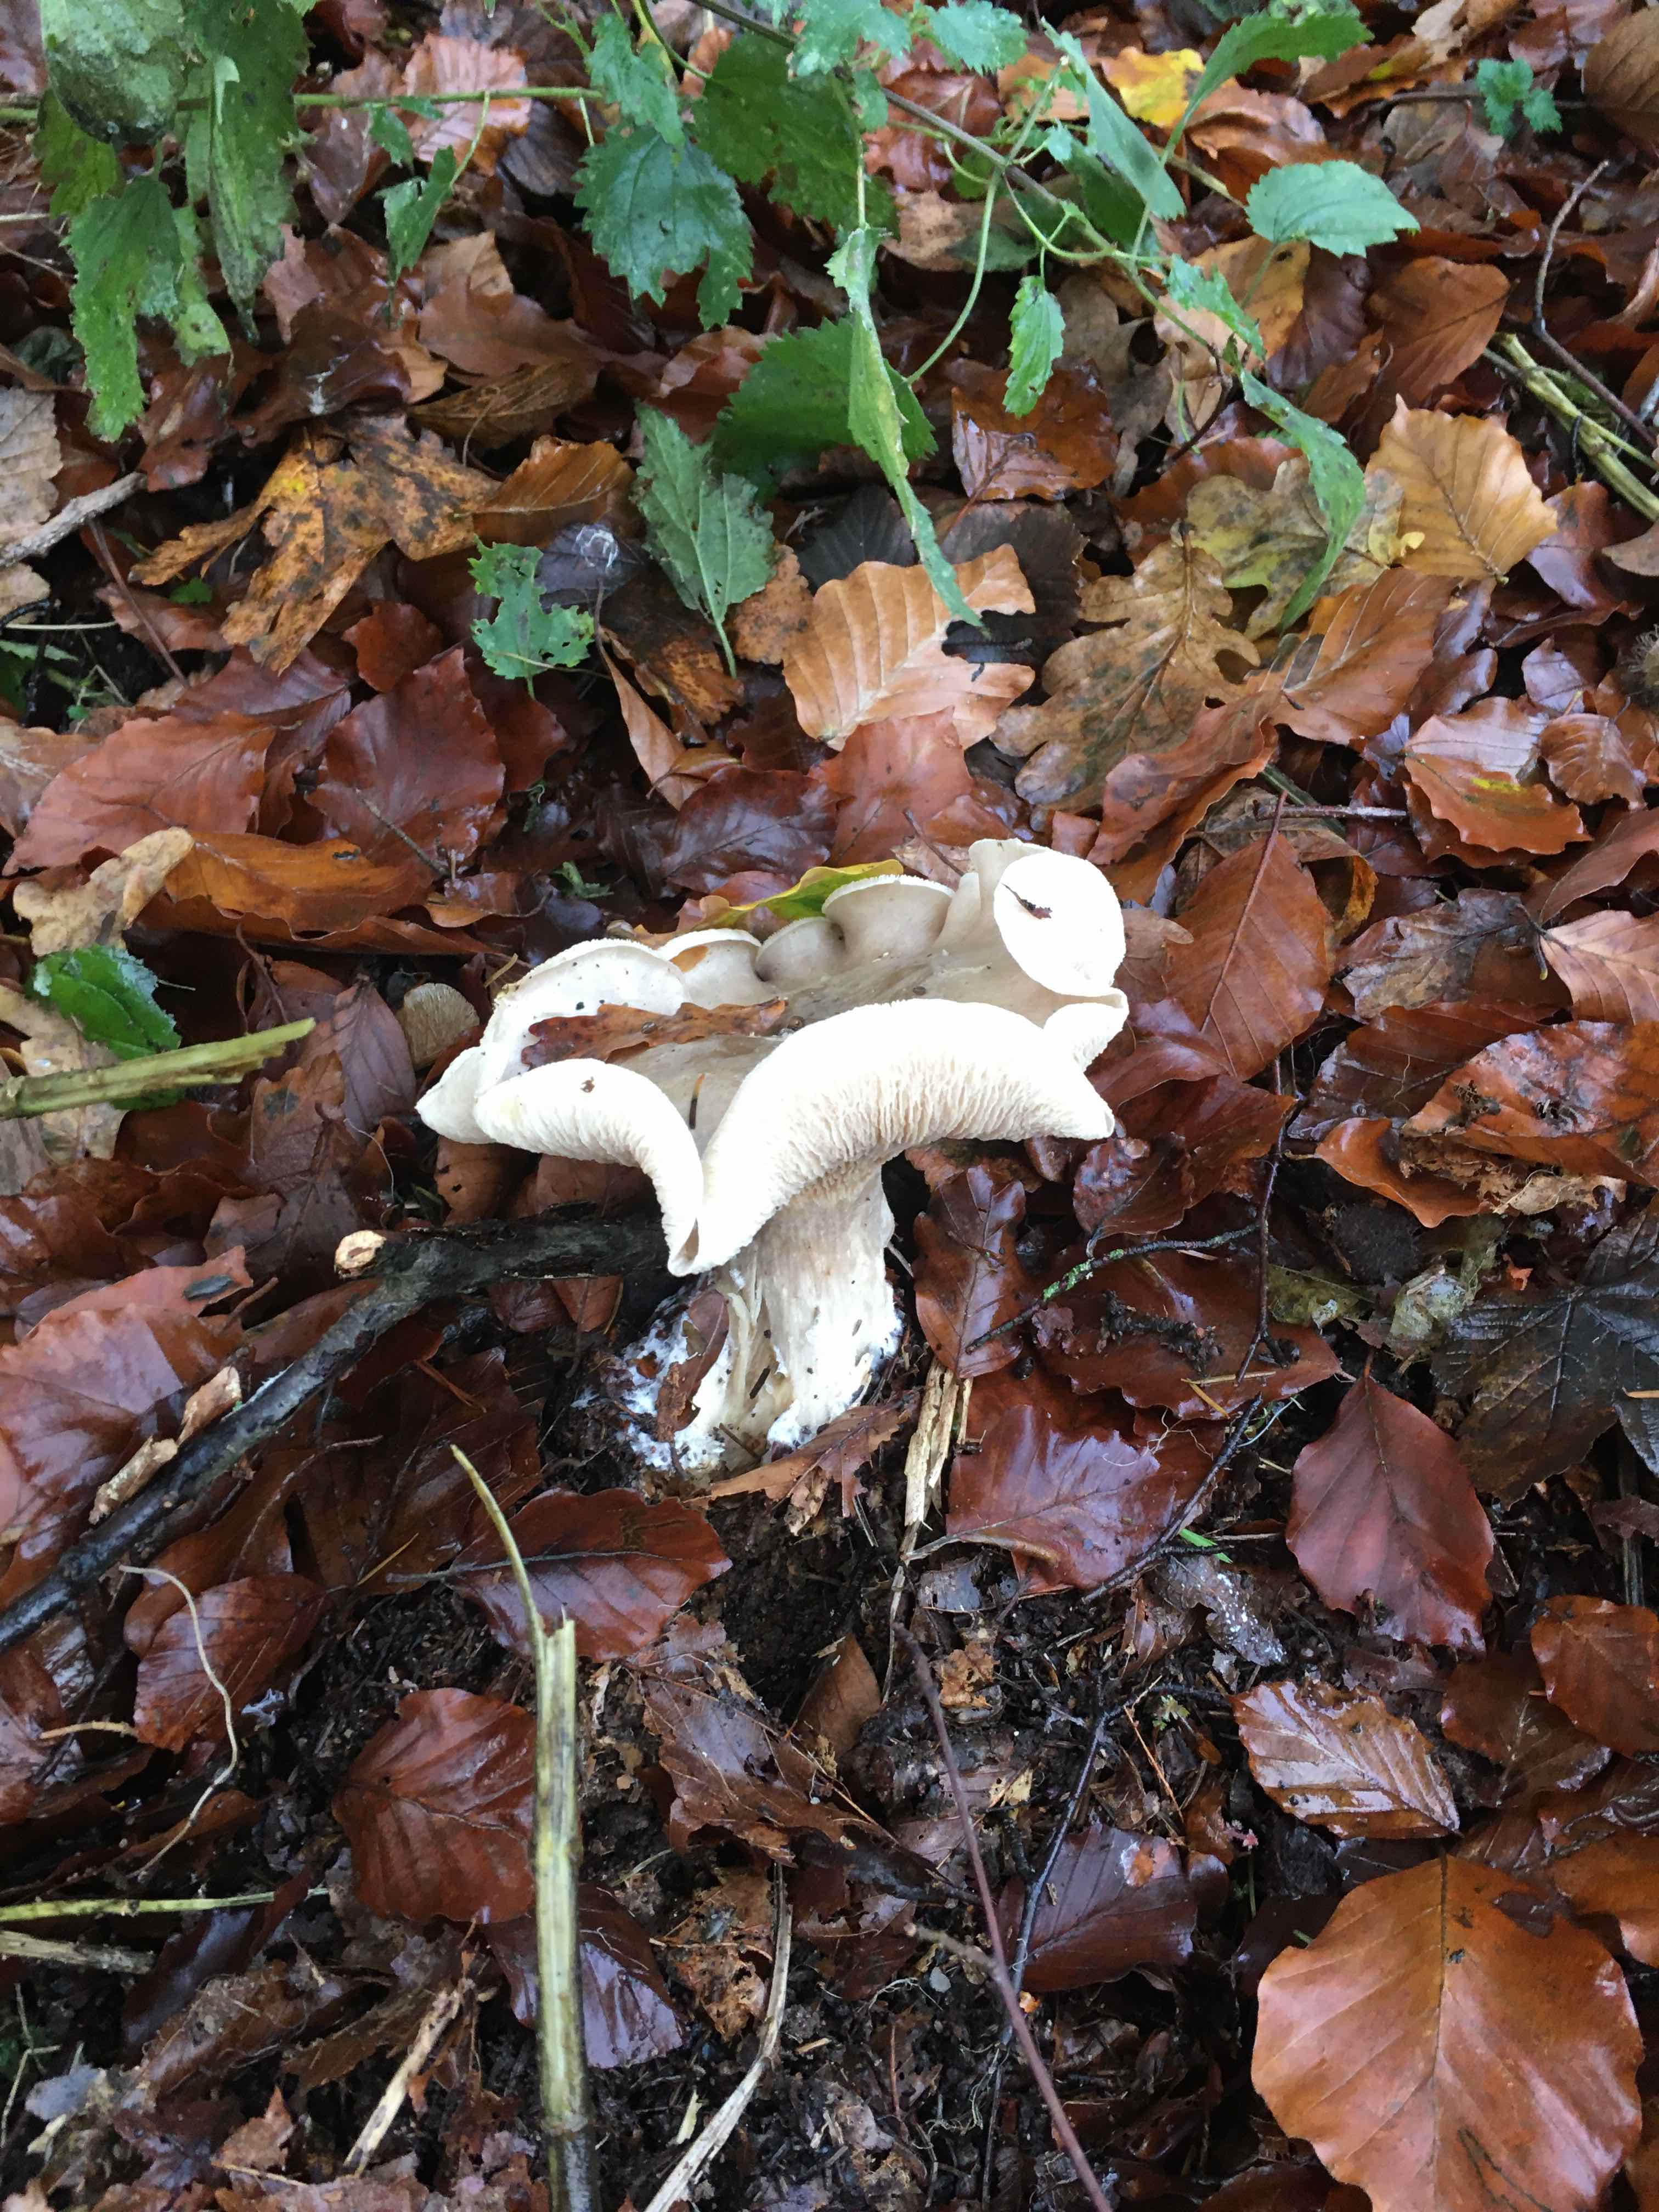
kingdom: Fungi
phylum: Basidiomycota
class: Agaricomycetes
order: Agaricales
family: Tricholomataceae
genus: Clitocybe
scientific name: Clitocybe nebularis
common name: tåge-tragthat
